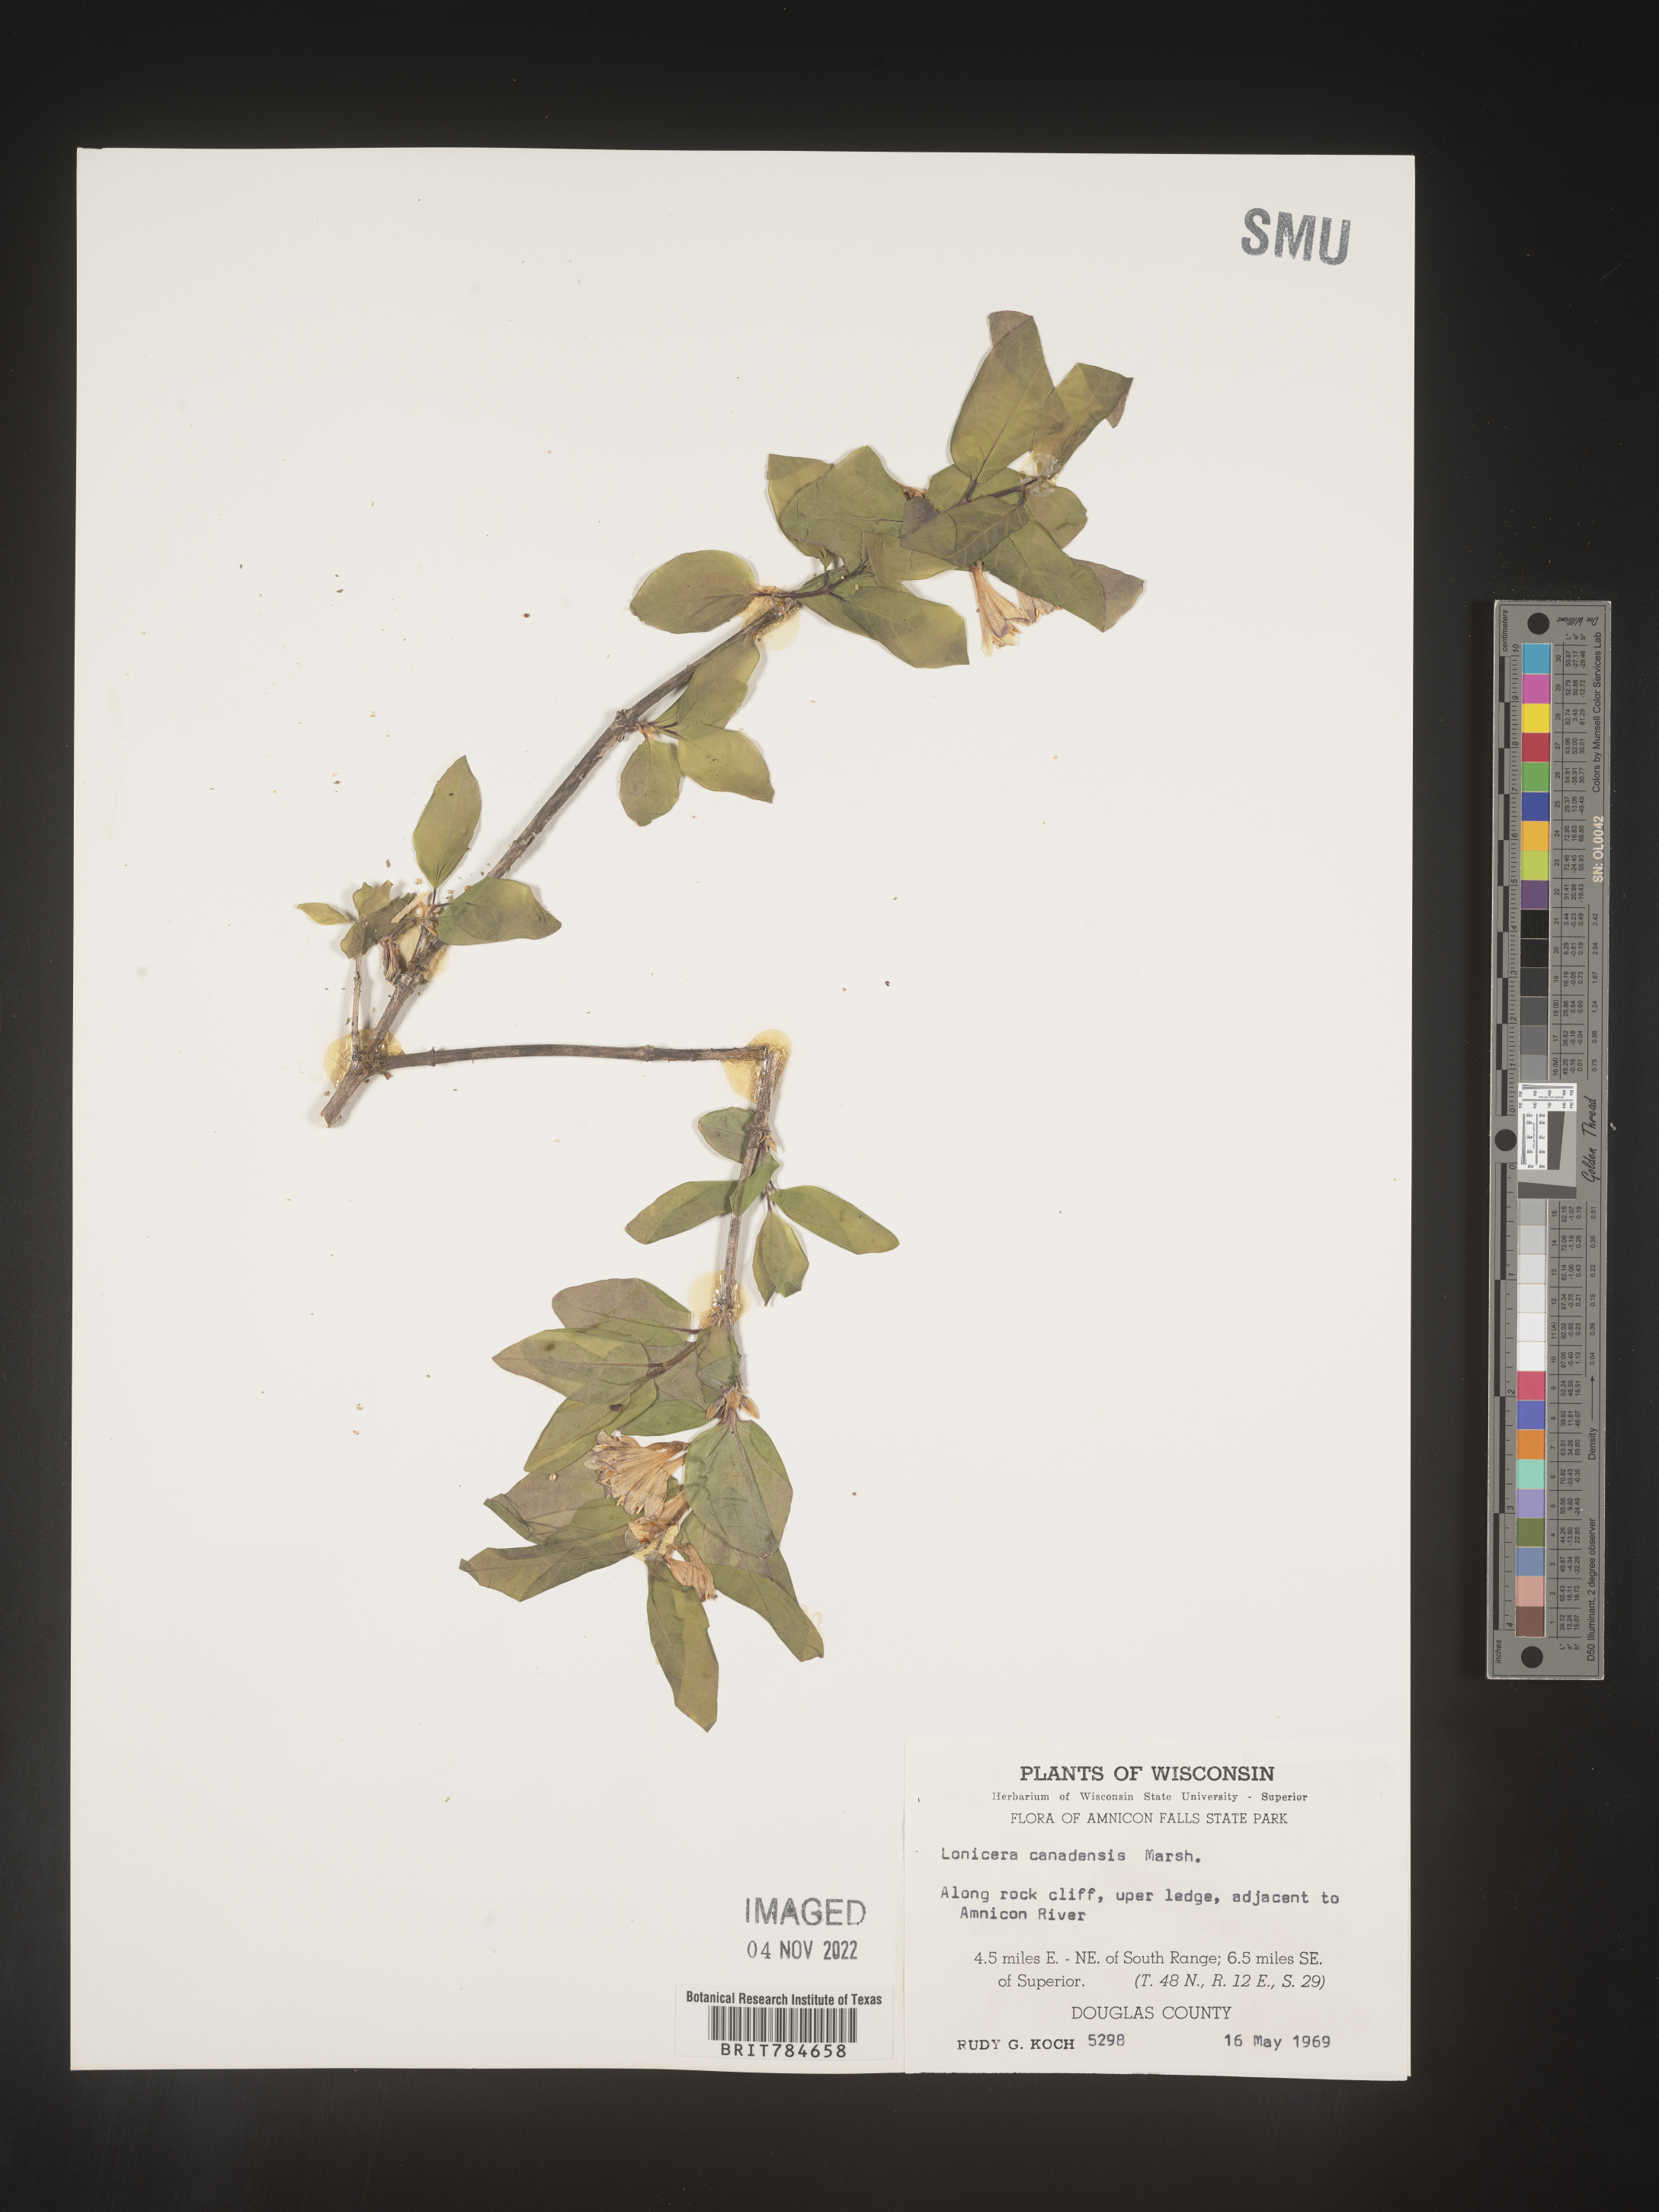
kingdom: Plantae
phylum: Tracheophyta
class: Magnoliopsida
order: Dipsacales
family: Caprifoliaceae
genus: Lonicera
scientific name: Lonicera
